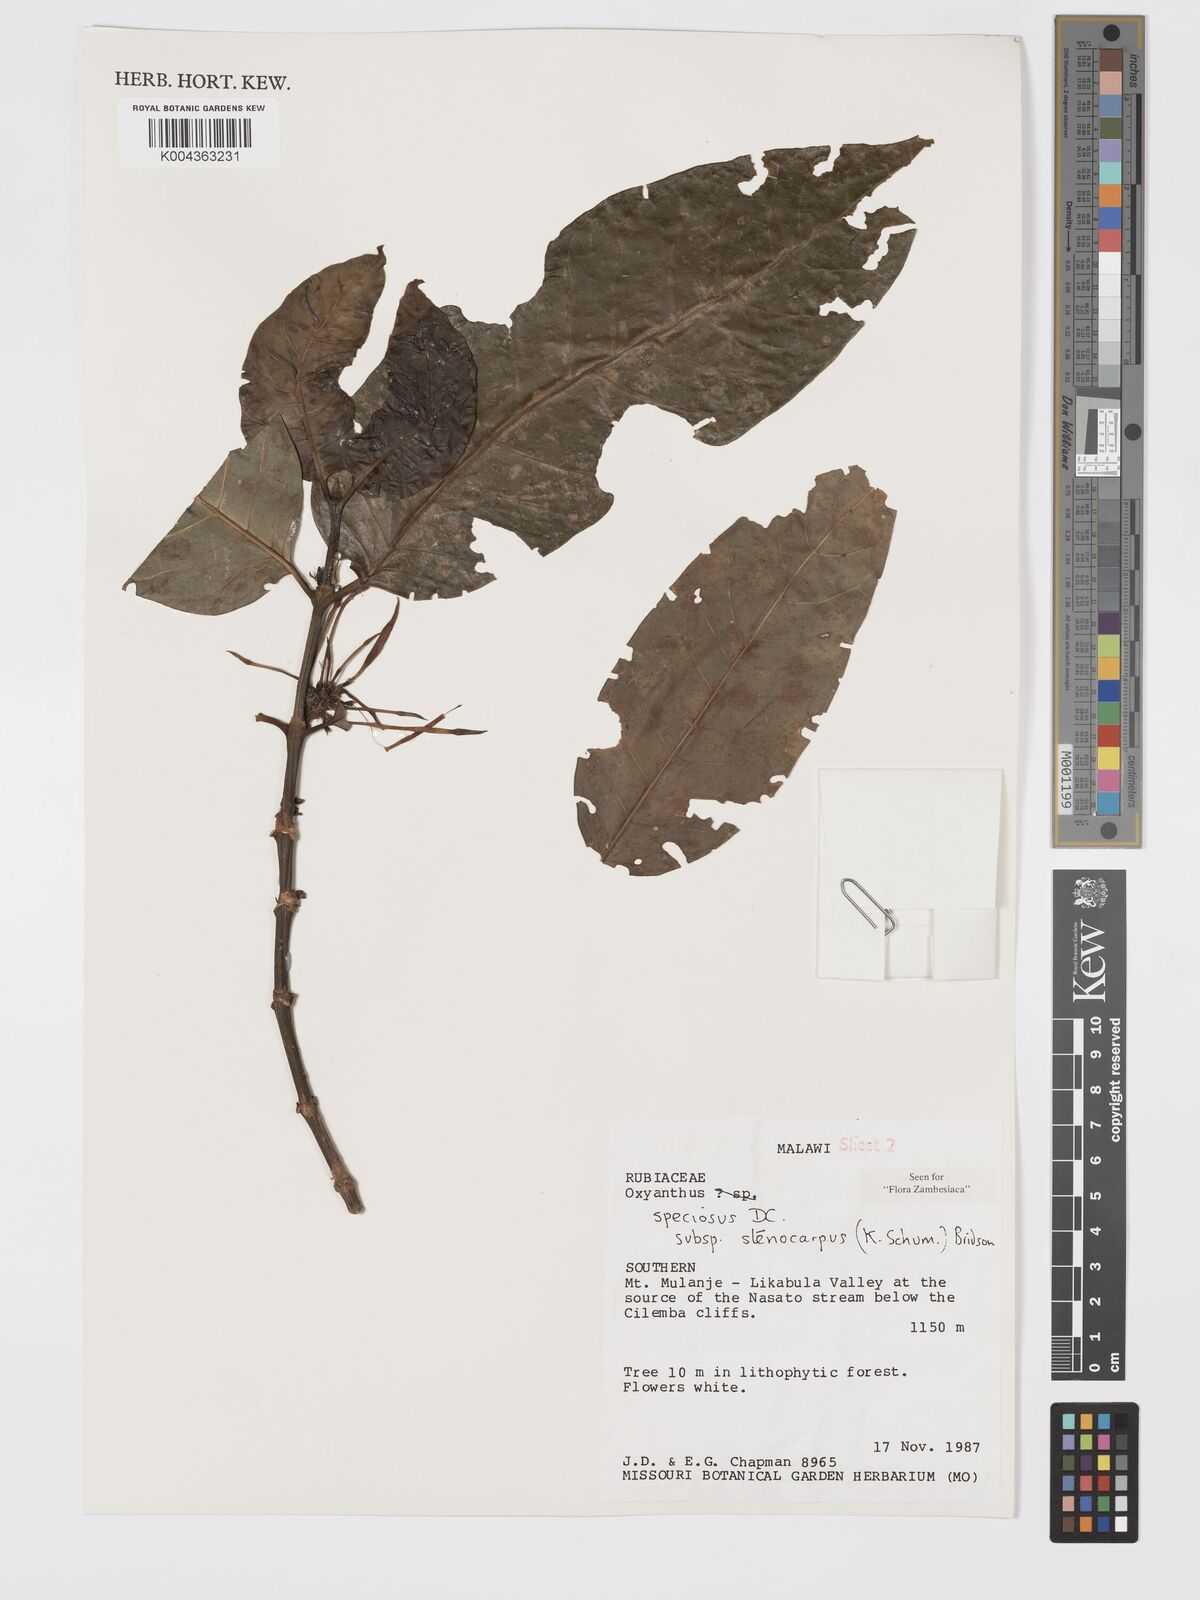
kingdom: Plantae
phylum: Tracheophyta
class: Magnoliopsida
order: Gentianales
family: Rubiaceae
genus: Oxyanthus
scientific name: Oxyanthus speciosus
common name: Whipstick loquat
